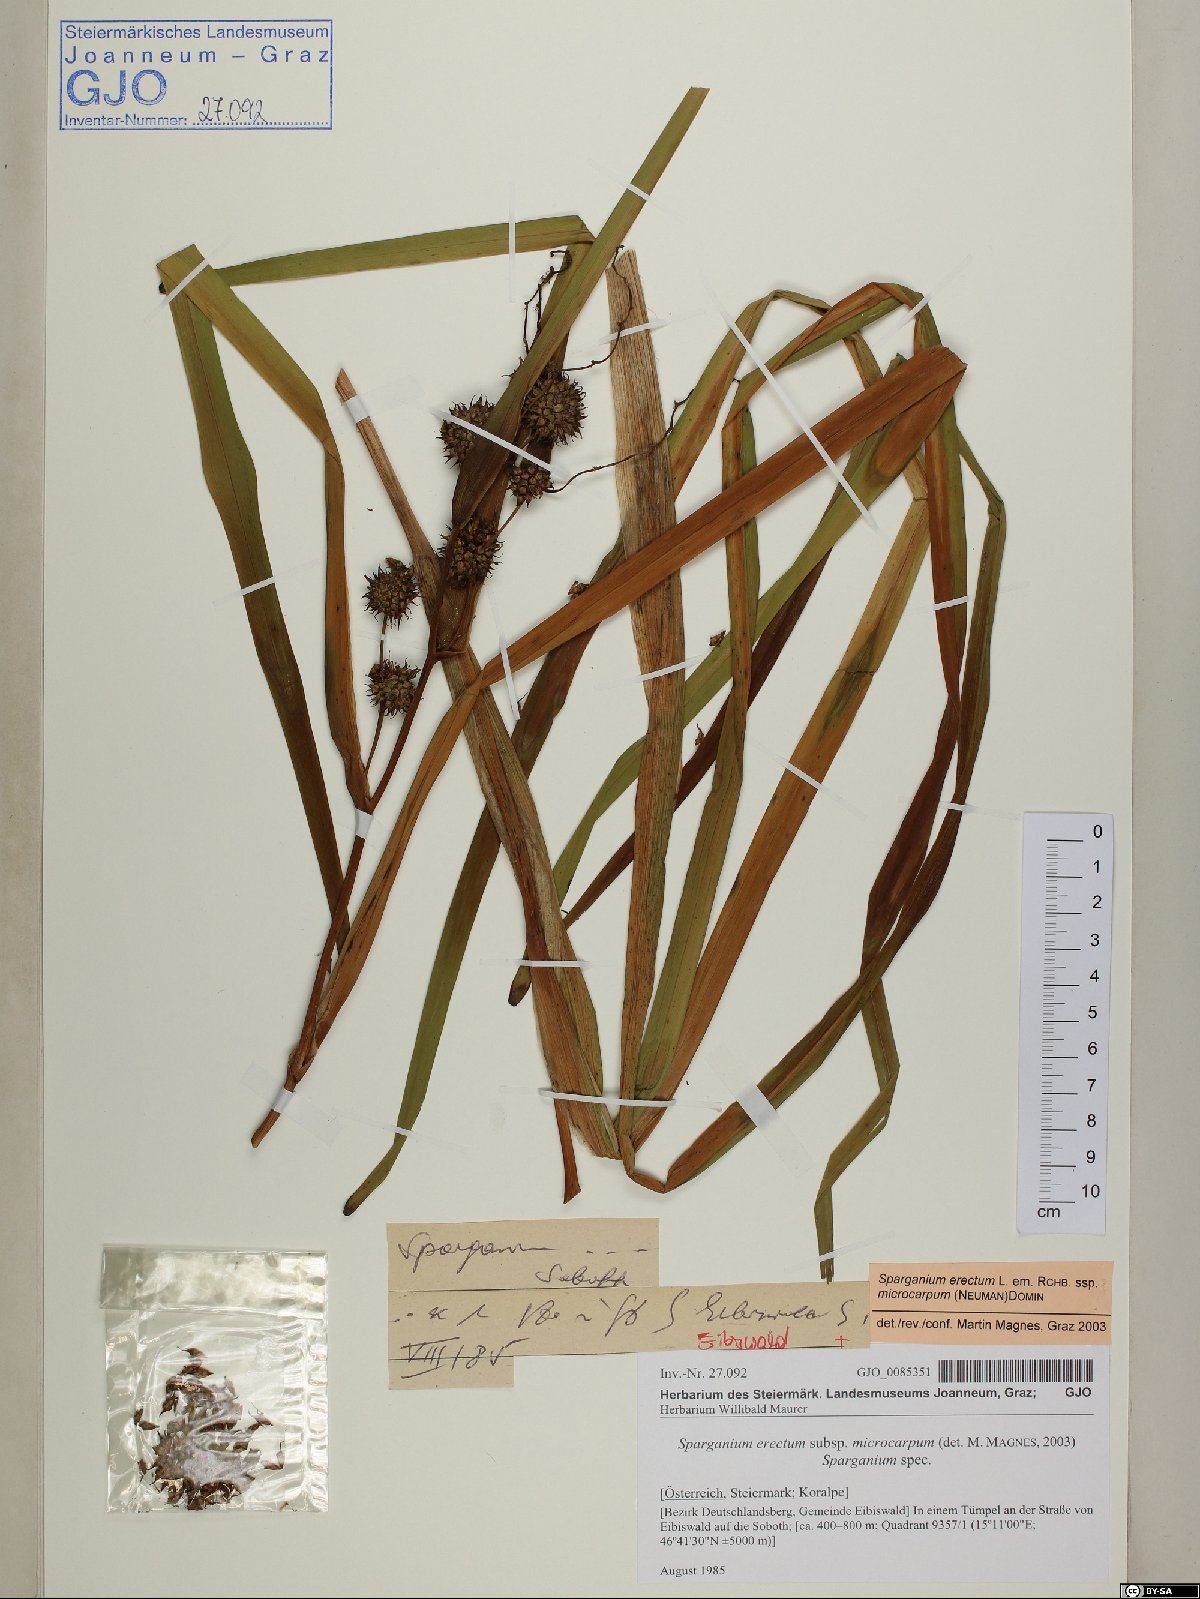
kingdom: Plantae
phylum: Tracheophyta
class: Liliopsida
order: Poales
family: Typhaceae
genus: Sparganium
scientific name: Sparganium erectum
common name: Branched bur-reed
